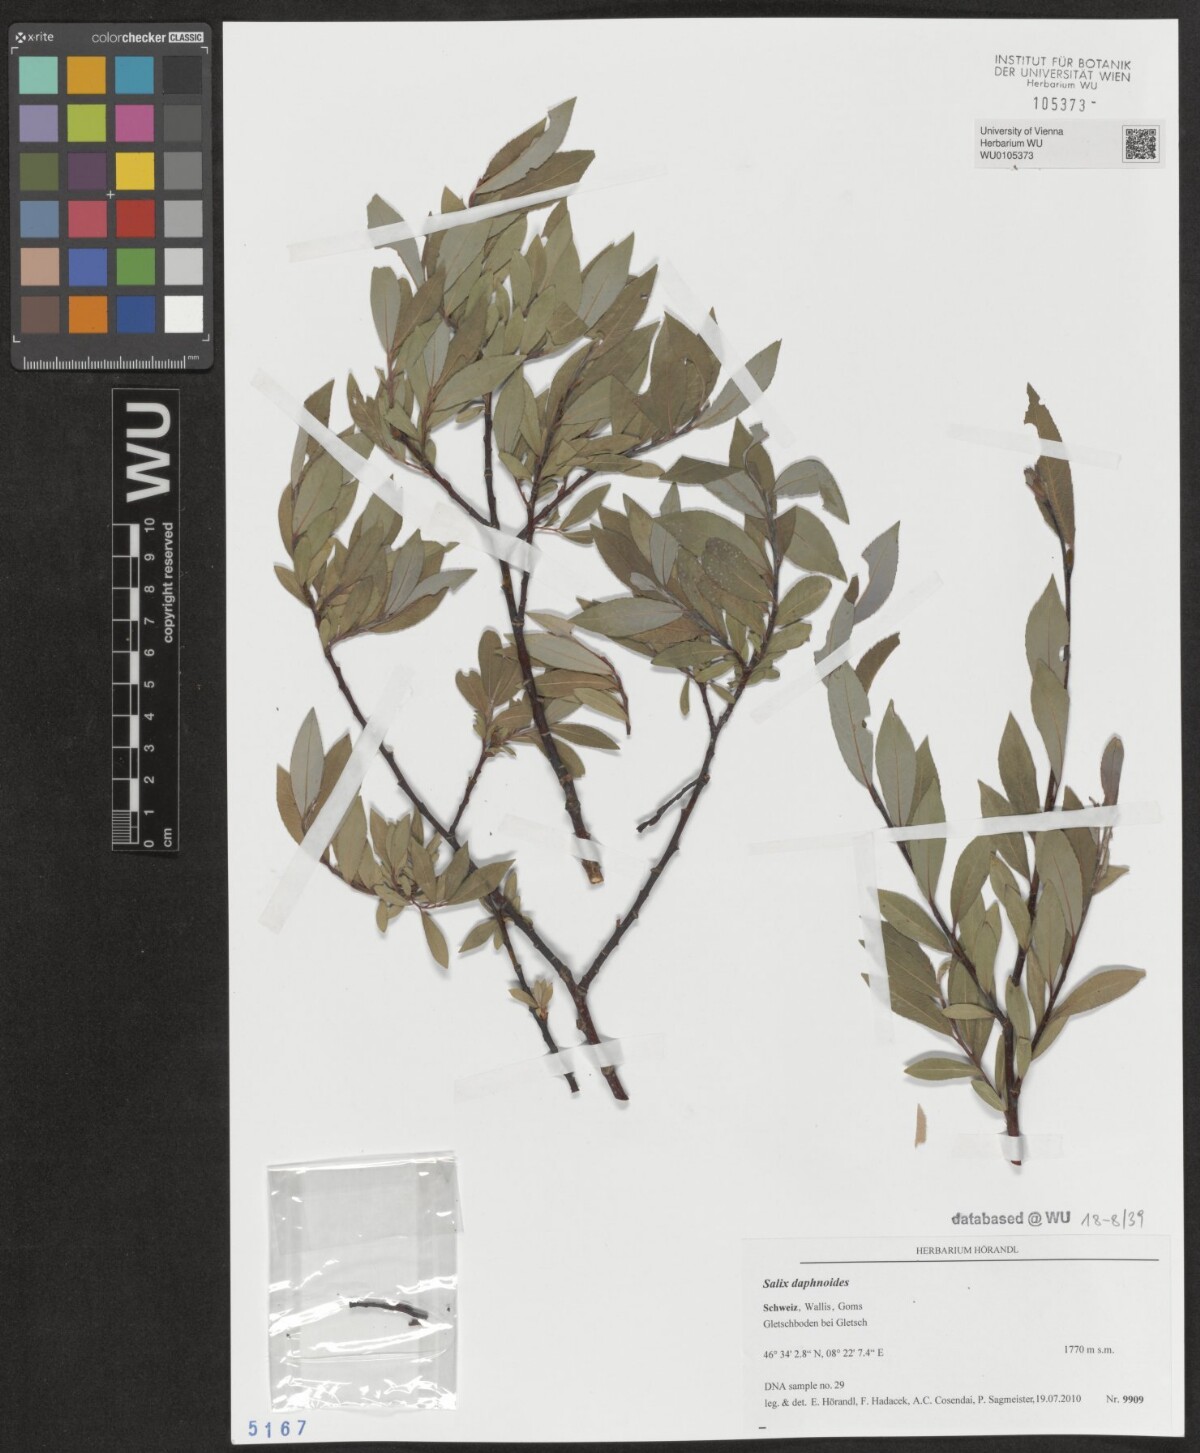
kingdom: Plantae
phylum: Tracheophyta
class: Magnoliopsida
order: Malpighiales
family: Salicaceae
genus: Salix
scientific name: Salix daphnoides
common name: European violet-willow
